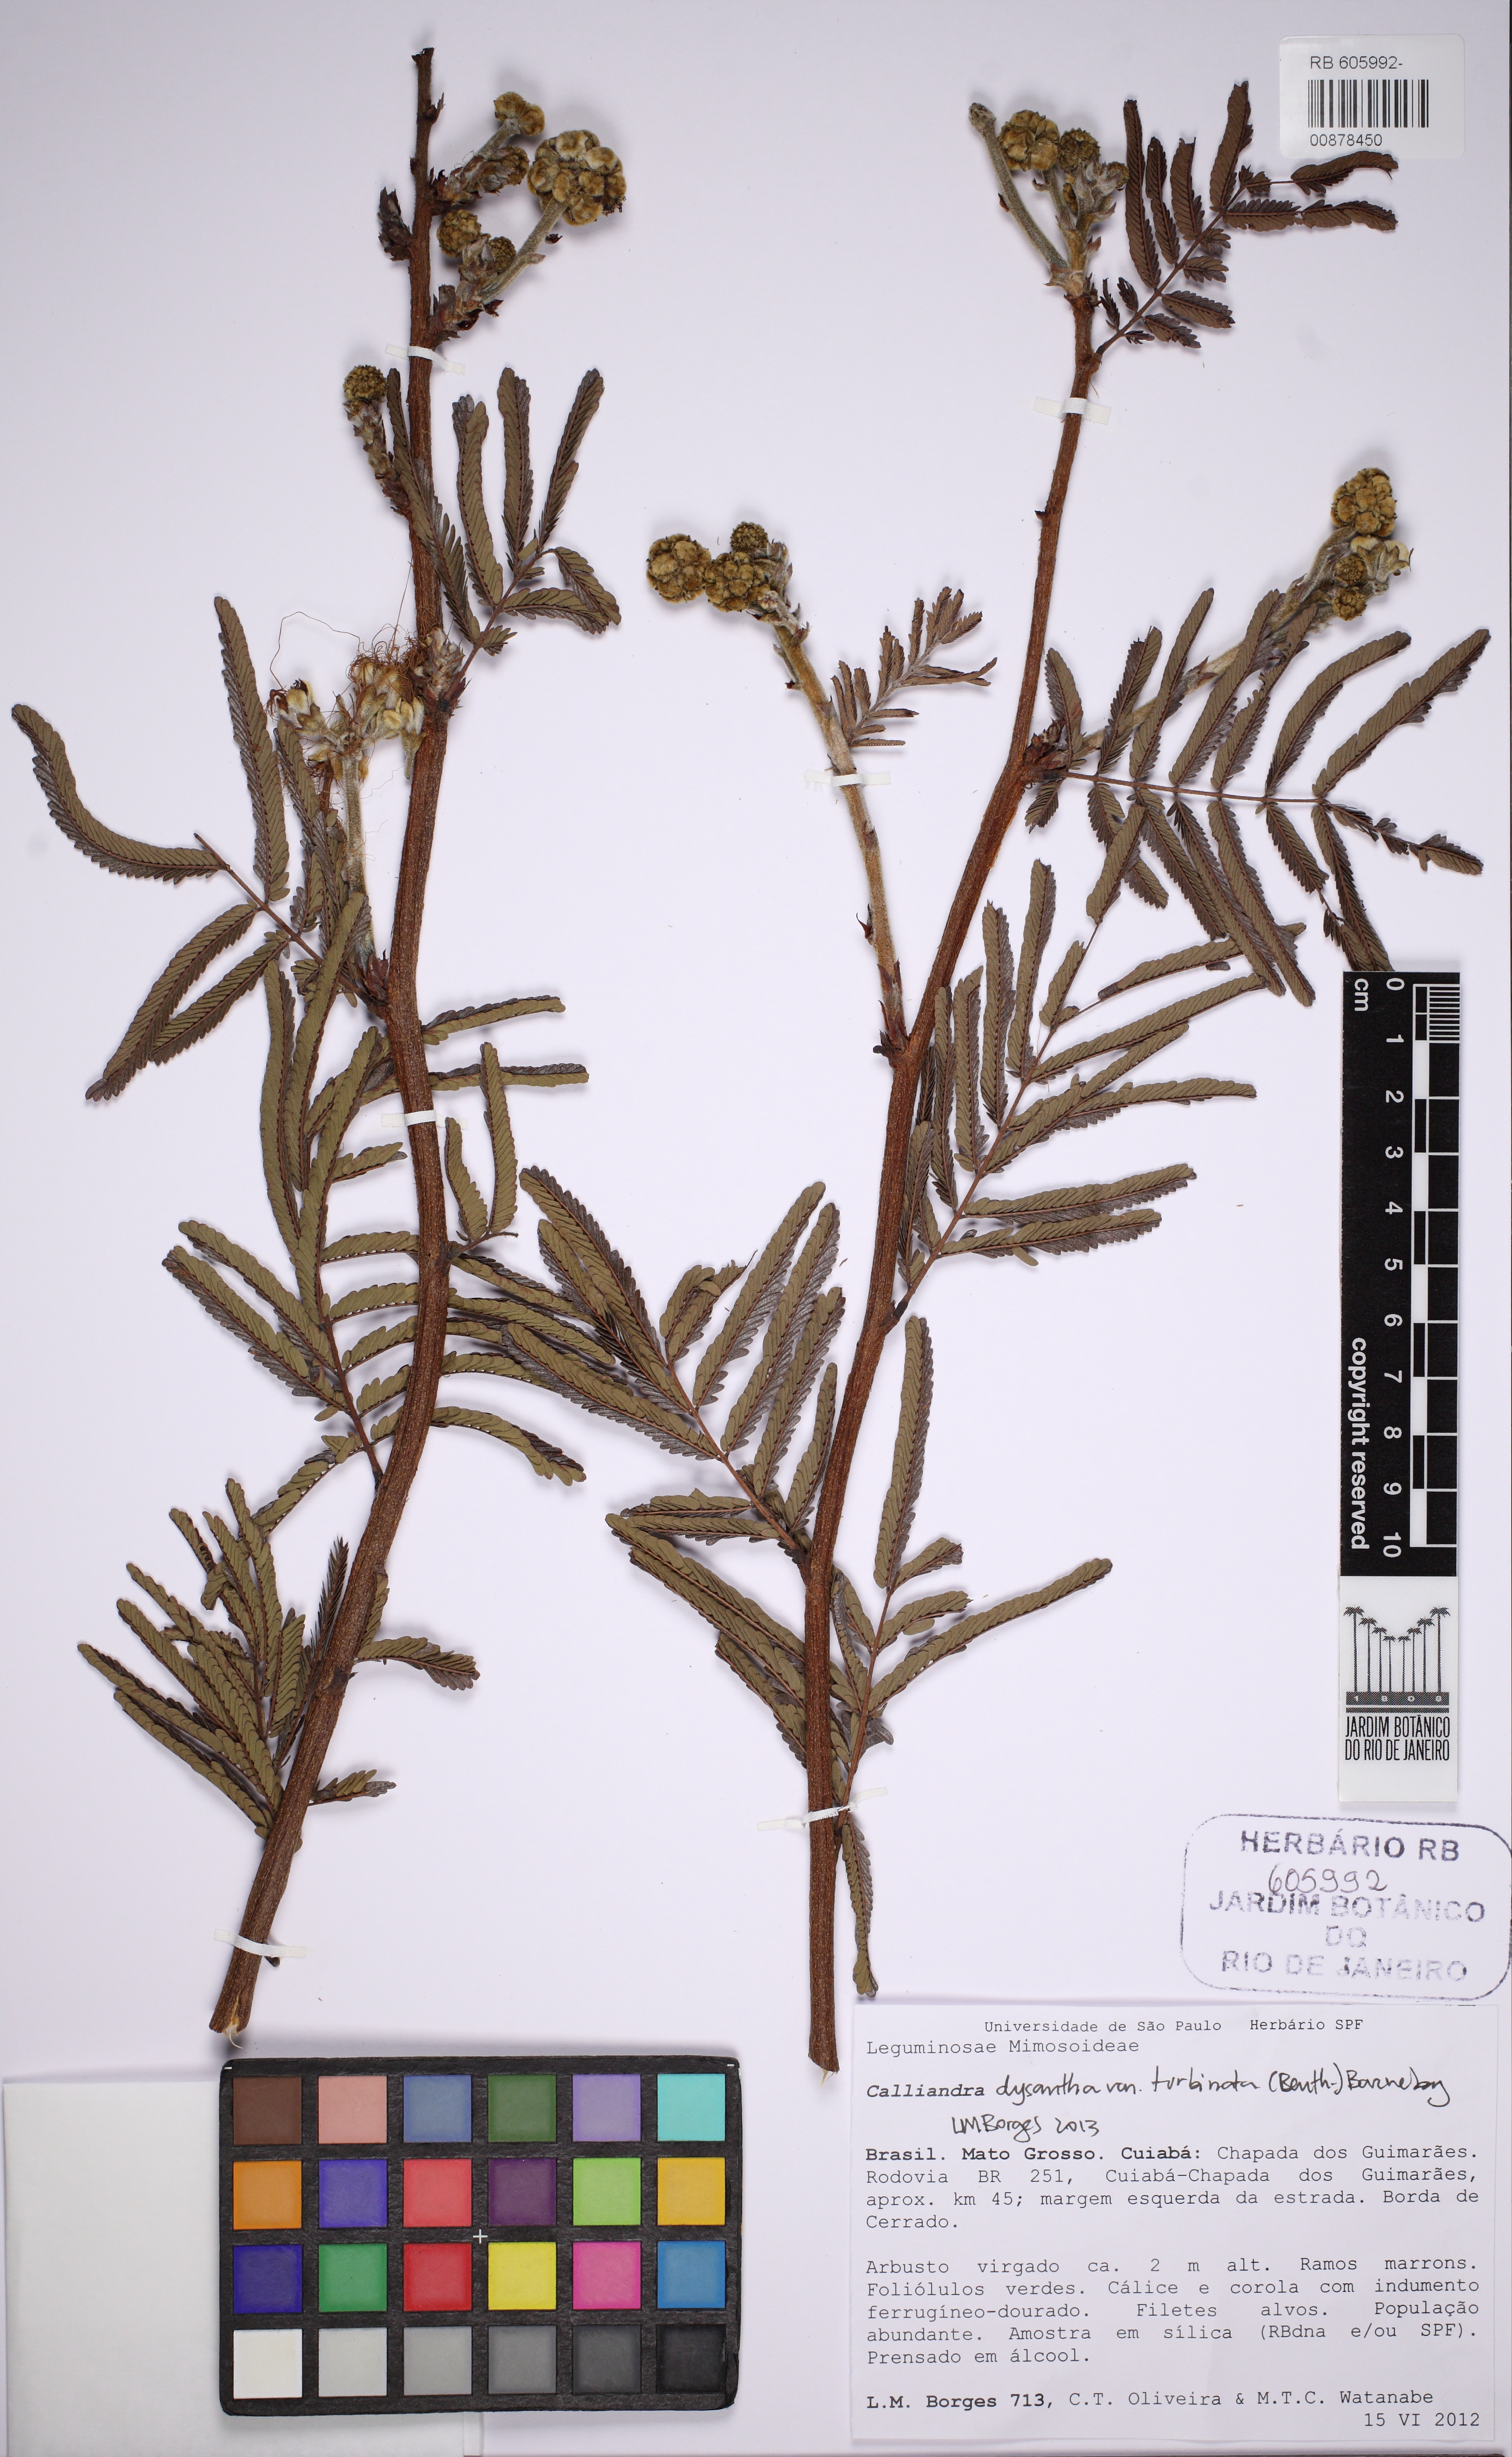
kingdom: Plantae
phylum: Tracheophyta
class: Magnoliopsida
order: Fabales
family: Fabaceae
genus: Calliandra
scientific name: Calliandra dysantha
